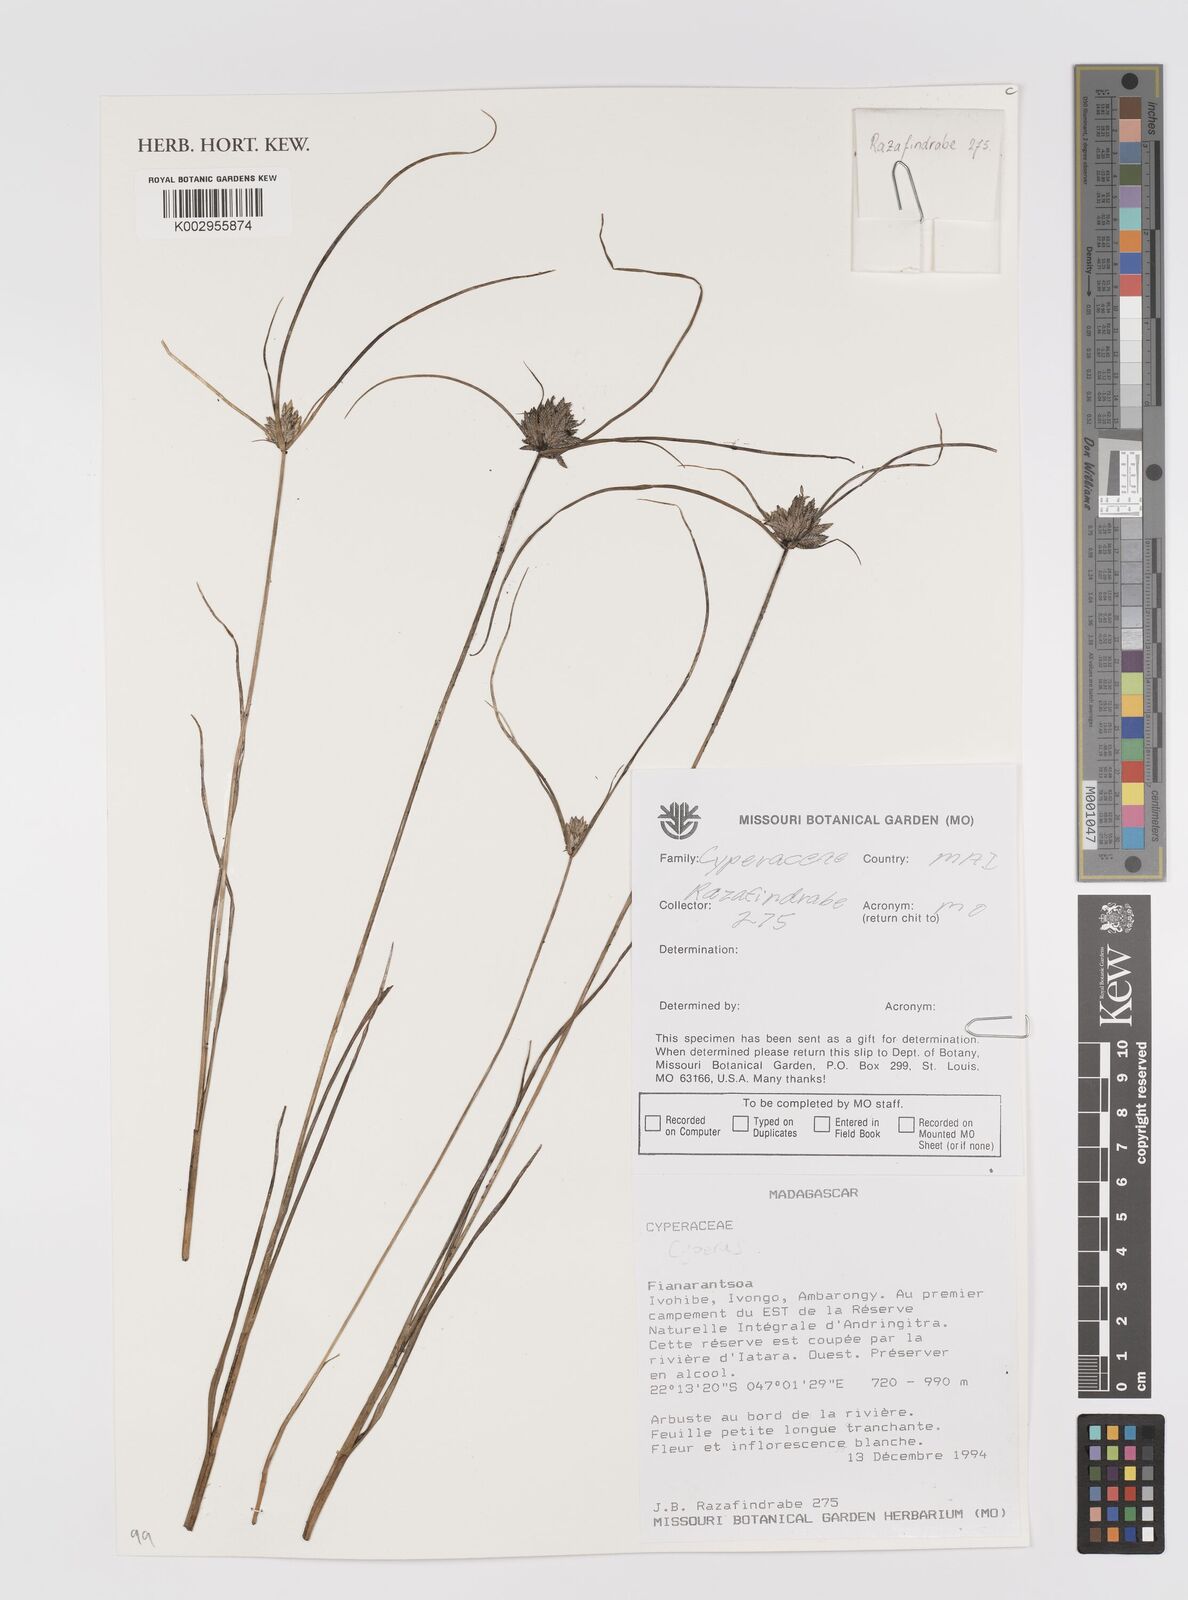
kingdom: Plantae
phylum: Tracheophyta
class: Liliopsida
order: Poales
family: Cyperaceae
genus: Cyperus
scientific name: Cyperus
